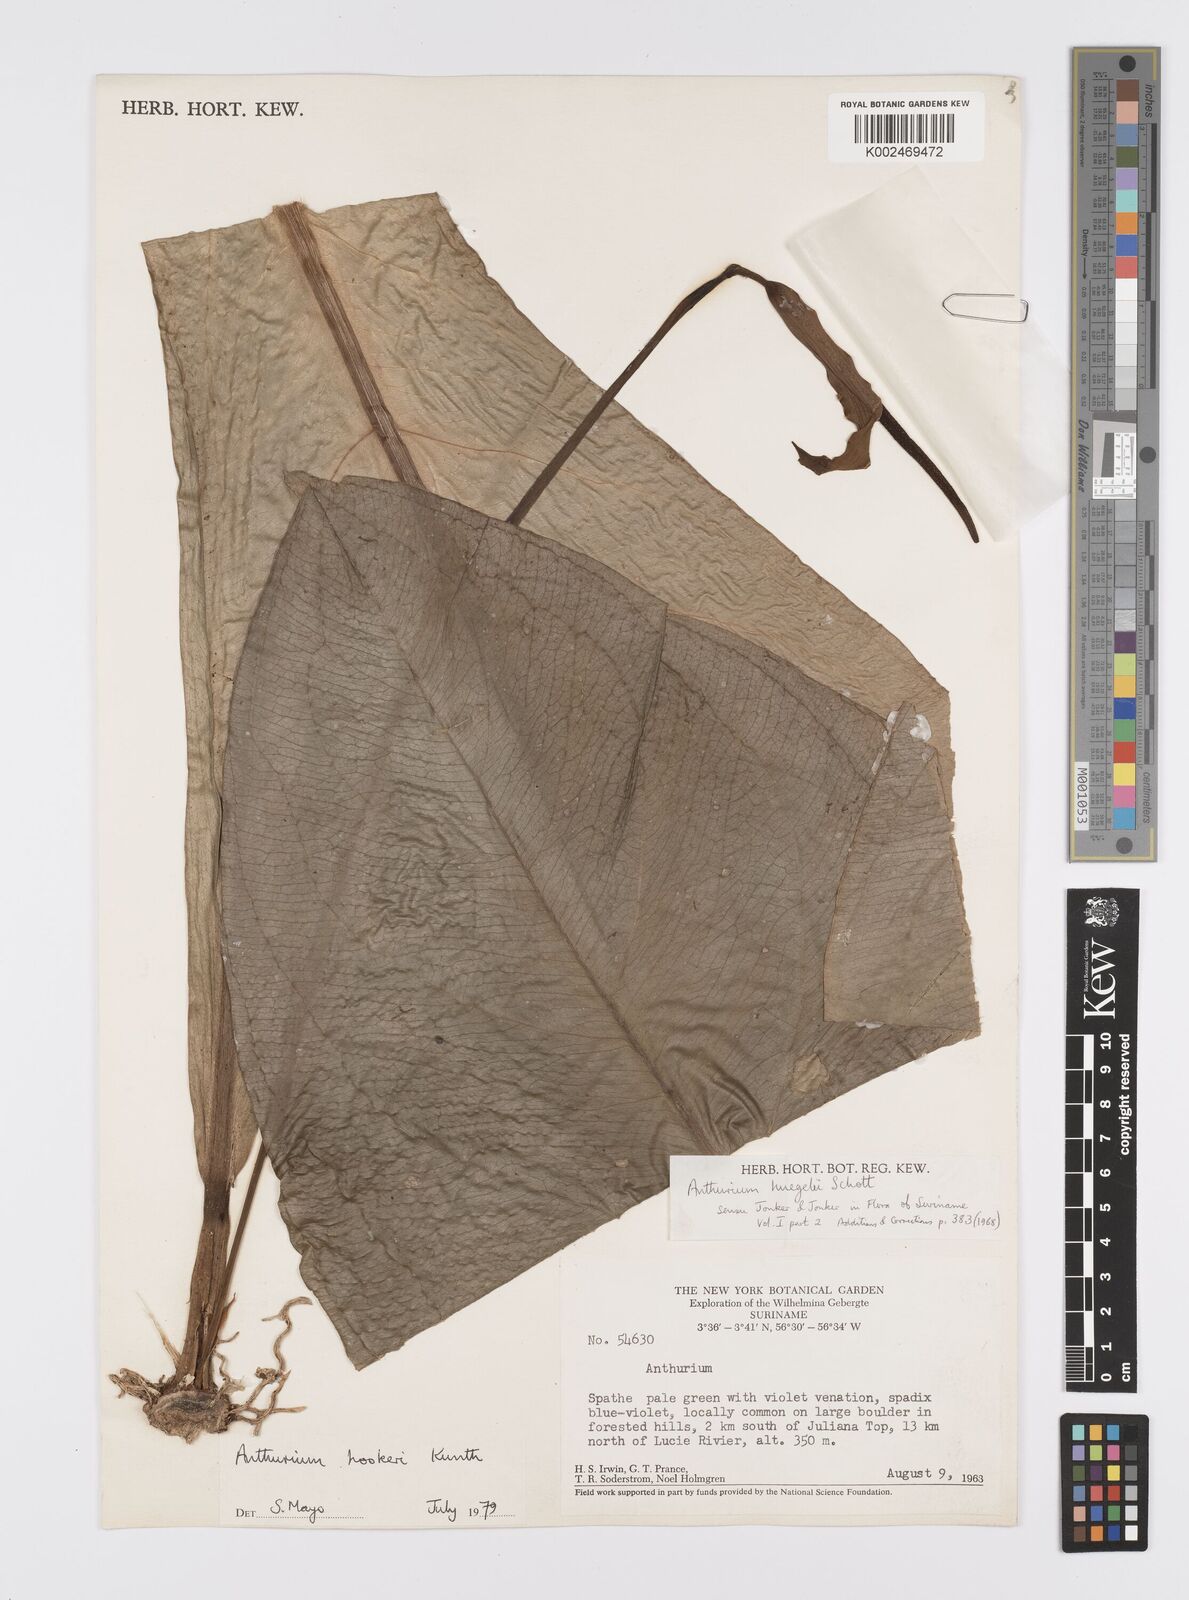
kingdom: Plantae
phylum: Tracheophyta
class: Liliopsida
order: Alismatales
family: Araceae
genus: Anthurium
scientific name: Anthurium hookeri
